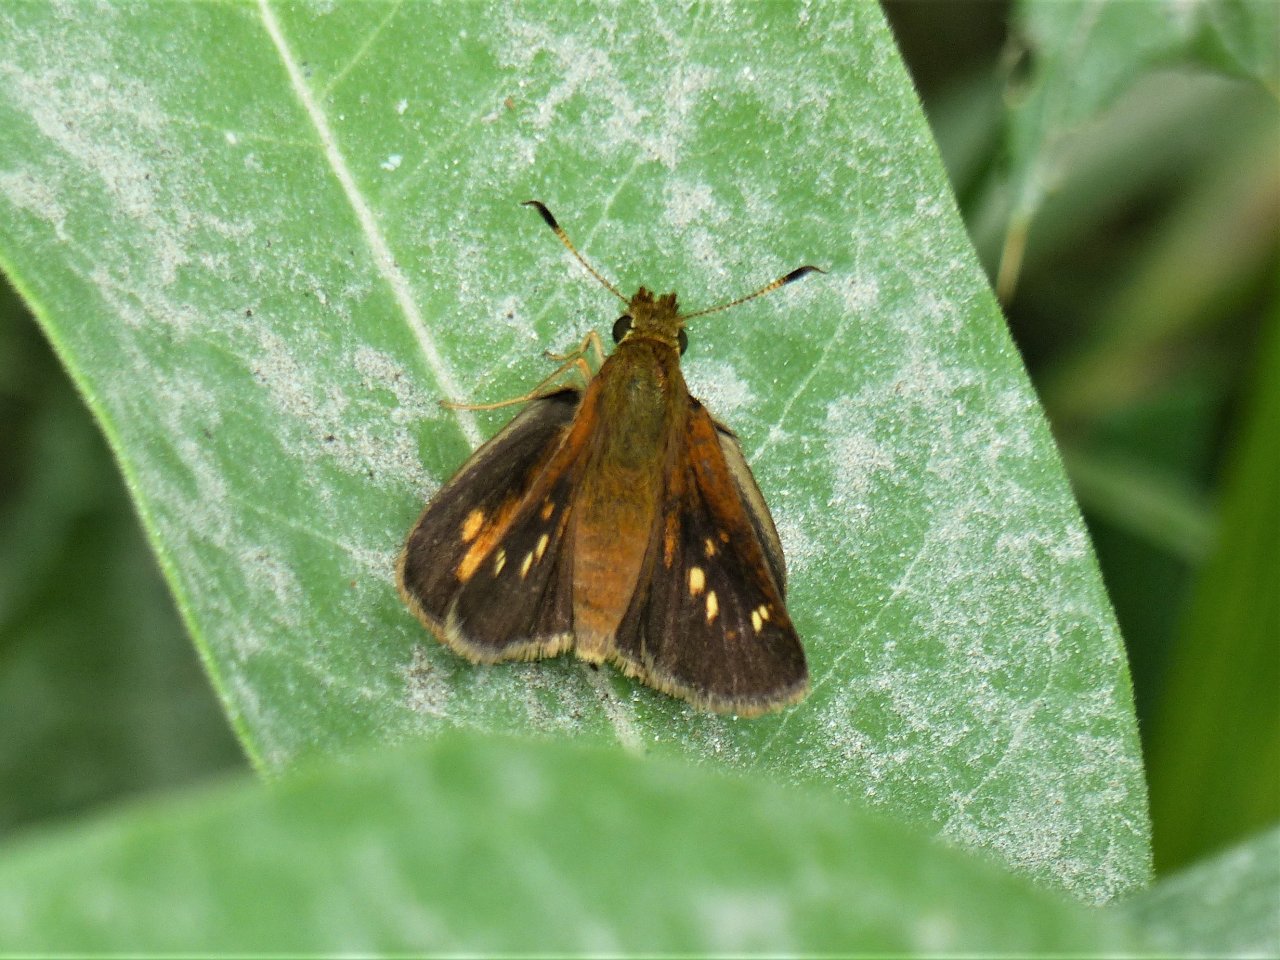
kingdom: Animalia
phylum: Arthropoda
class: Insecta
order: Lepidoptera
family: Hesperiidae
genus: Poanes
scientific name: Poanes massasoit
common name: Mulberry Wing
